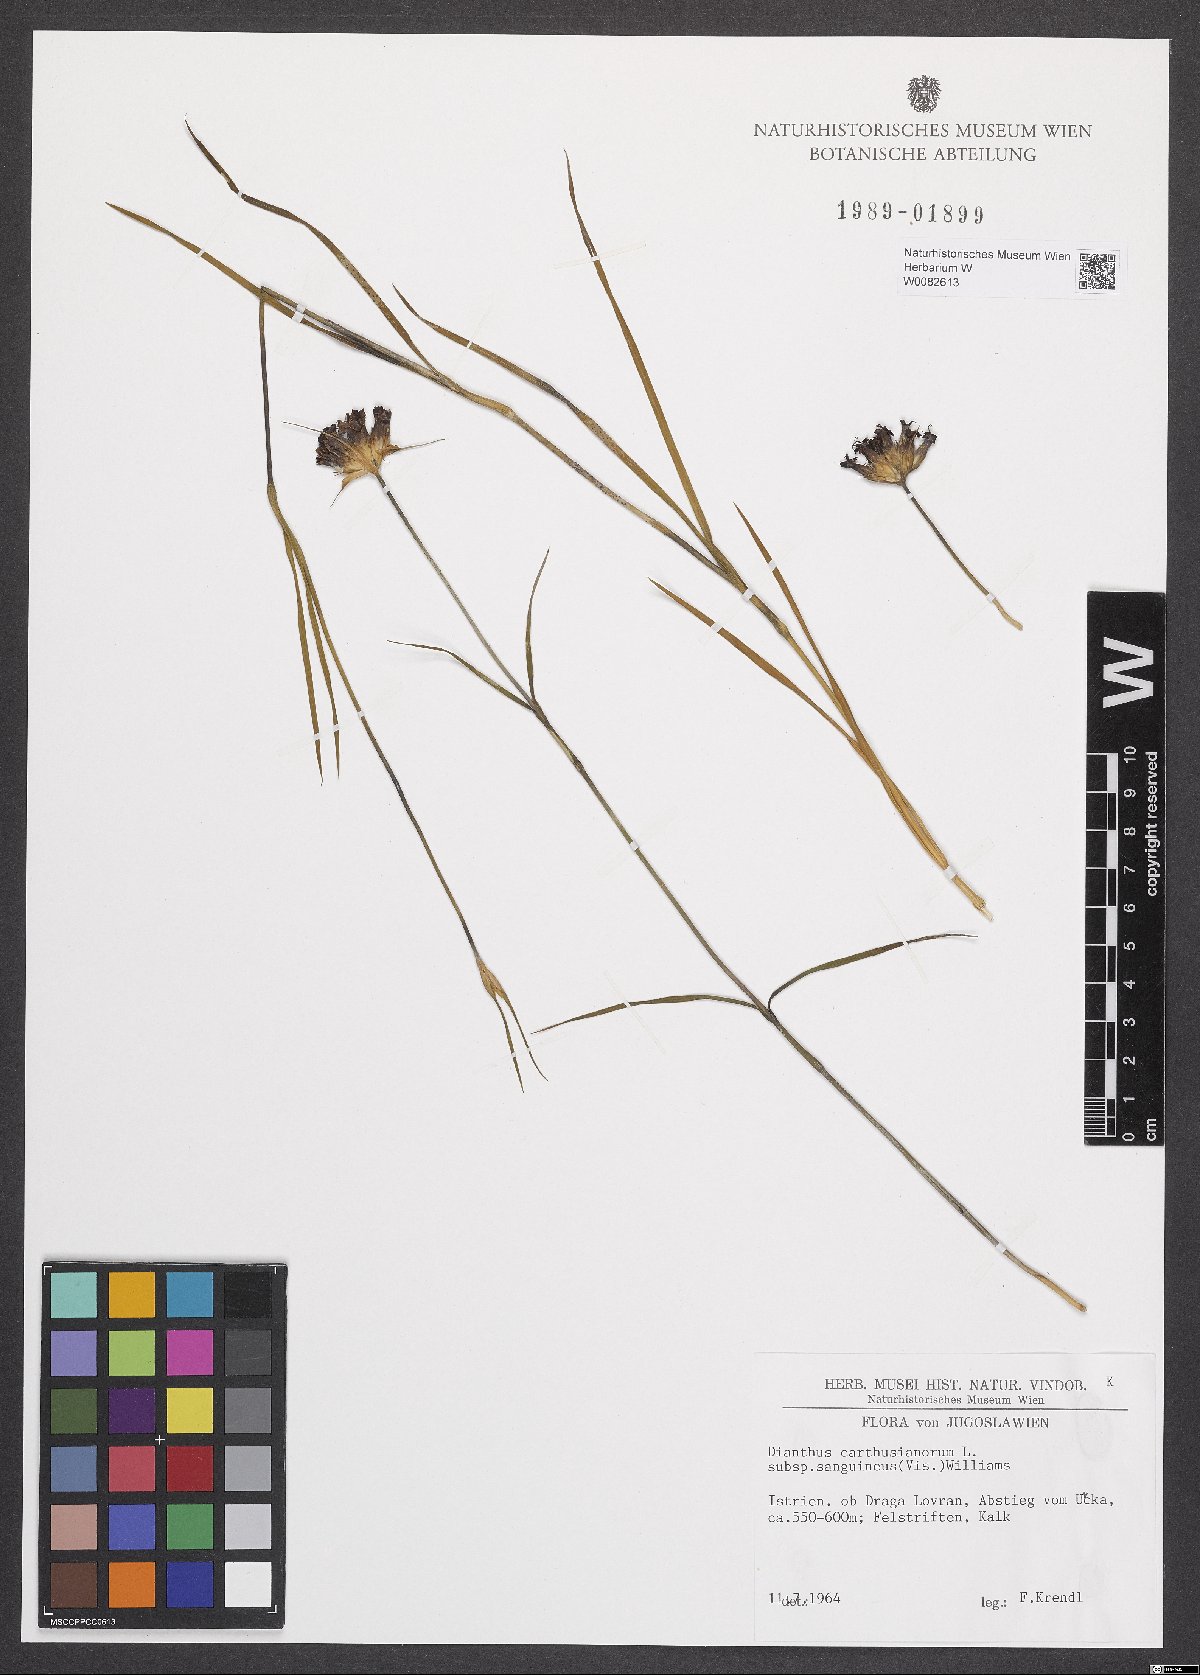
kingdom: Plantae
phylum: Tracheophyta
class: Magnoliopsida
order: Caryophyllales
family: Caryophyllaceae
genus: Dianthus
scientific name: Dianthus carthusianorum
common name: Carthusian pink
